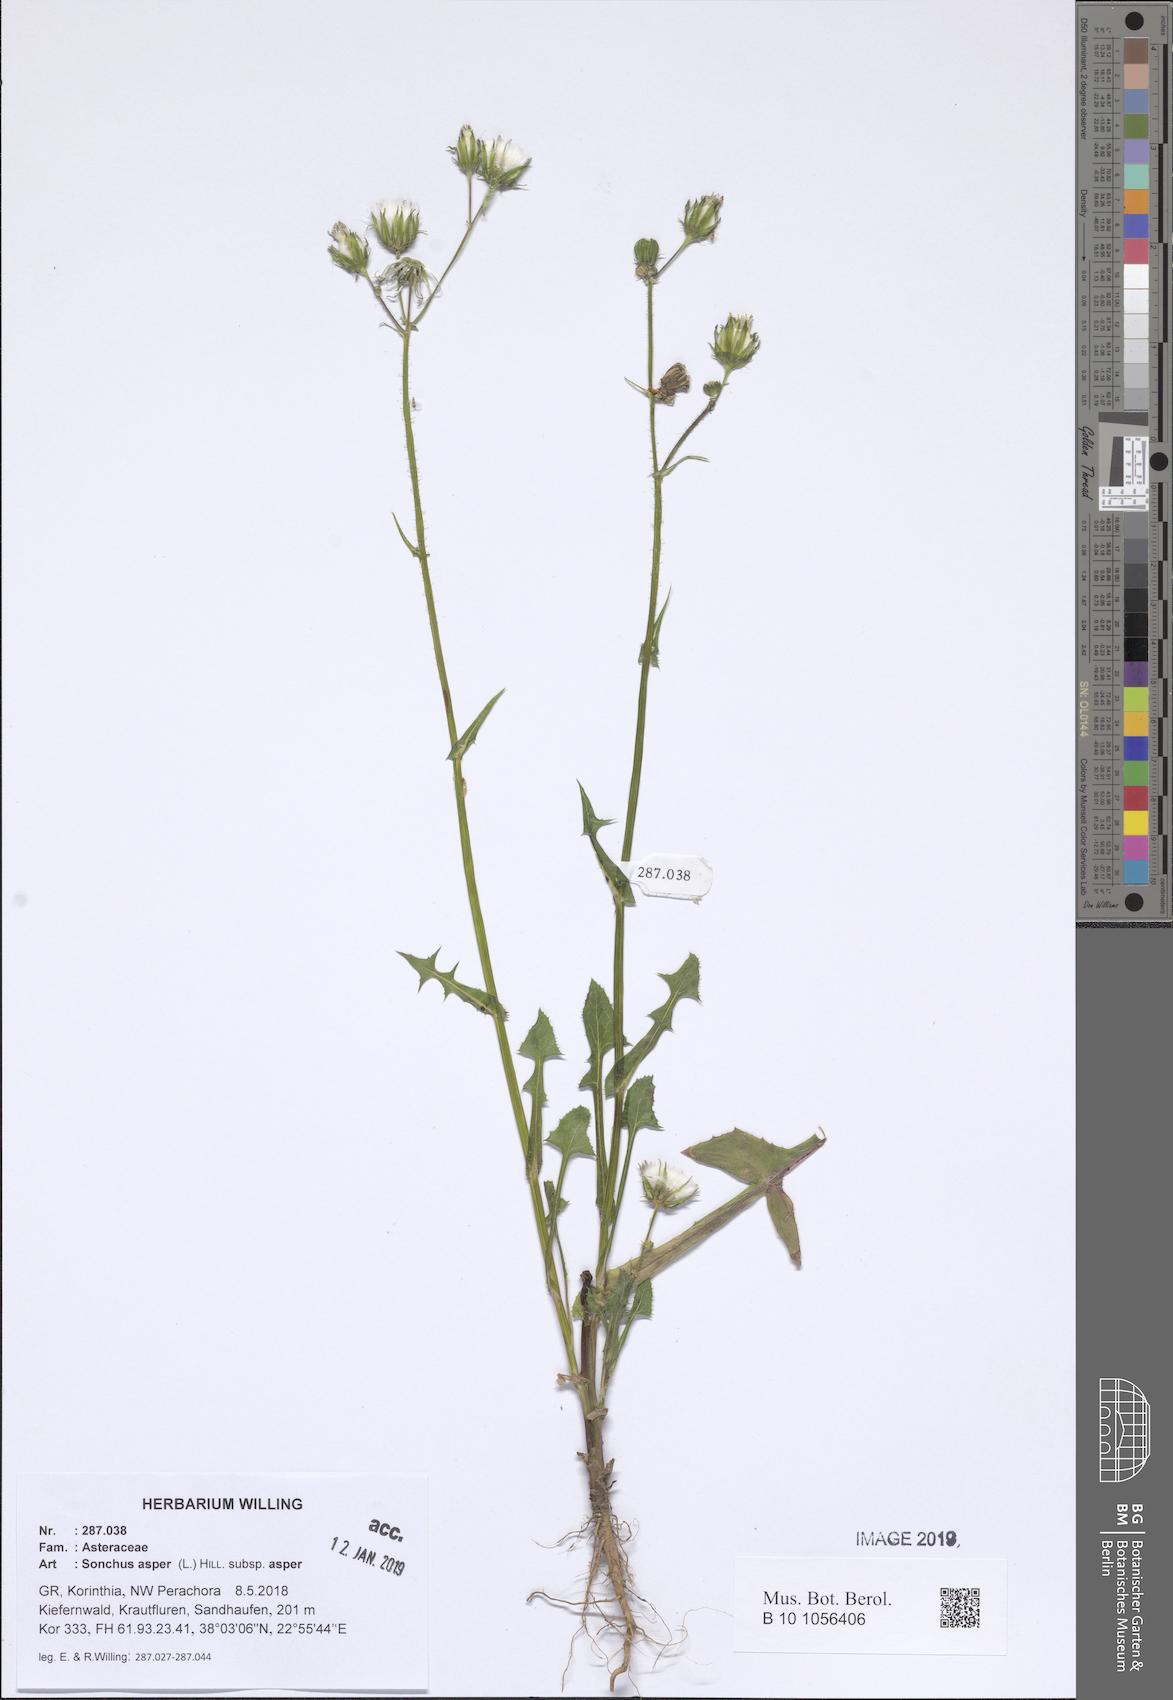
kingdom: Plantae
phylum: Tracheophyta
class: Magnoliopsida
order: Asterales
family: Asteraceae
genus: Sonchus
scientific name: Sonchus asper
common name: Prickly sow-thistle
